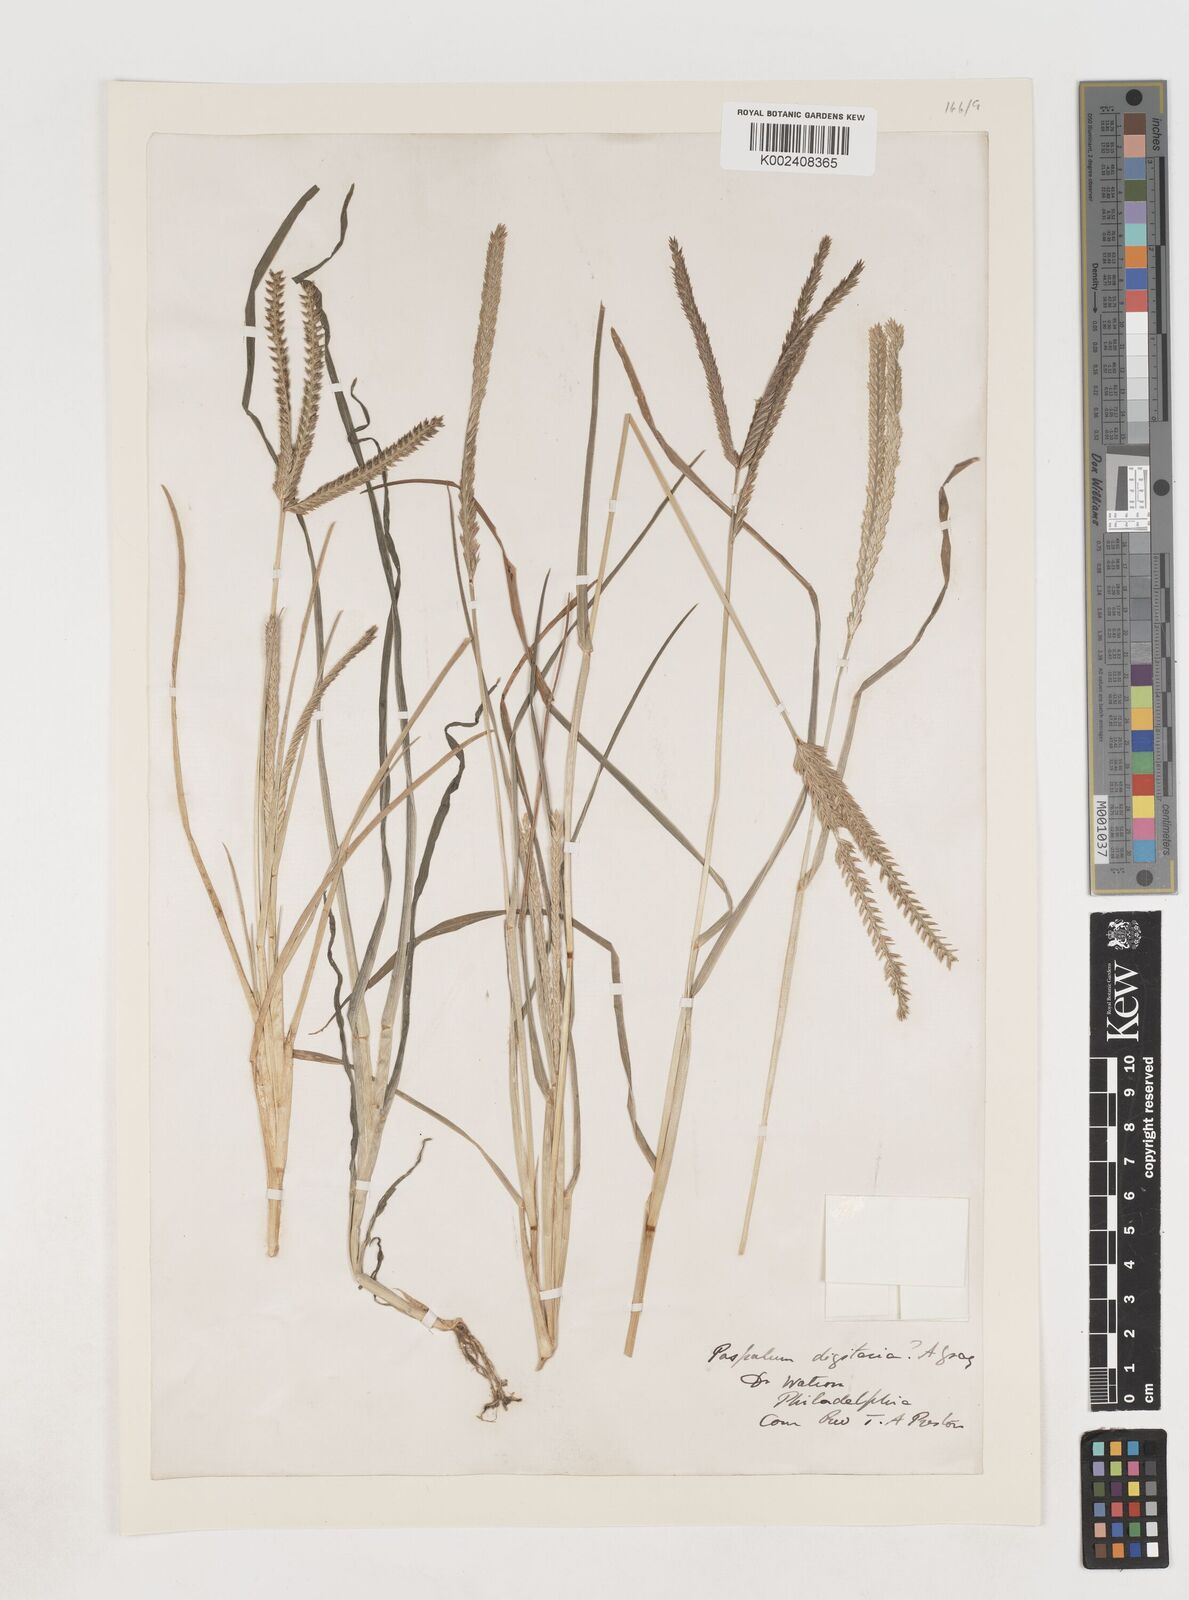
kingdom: Plantae
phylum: Tracheophyta
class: Liliopsida
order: Poales
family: Poaceae
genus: Eleusine
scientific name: Eleusine indica
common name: Yard-grass
